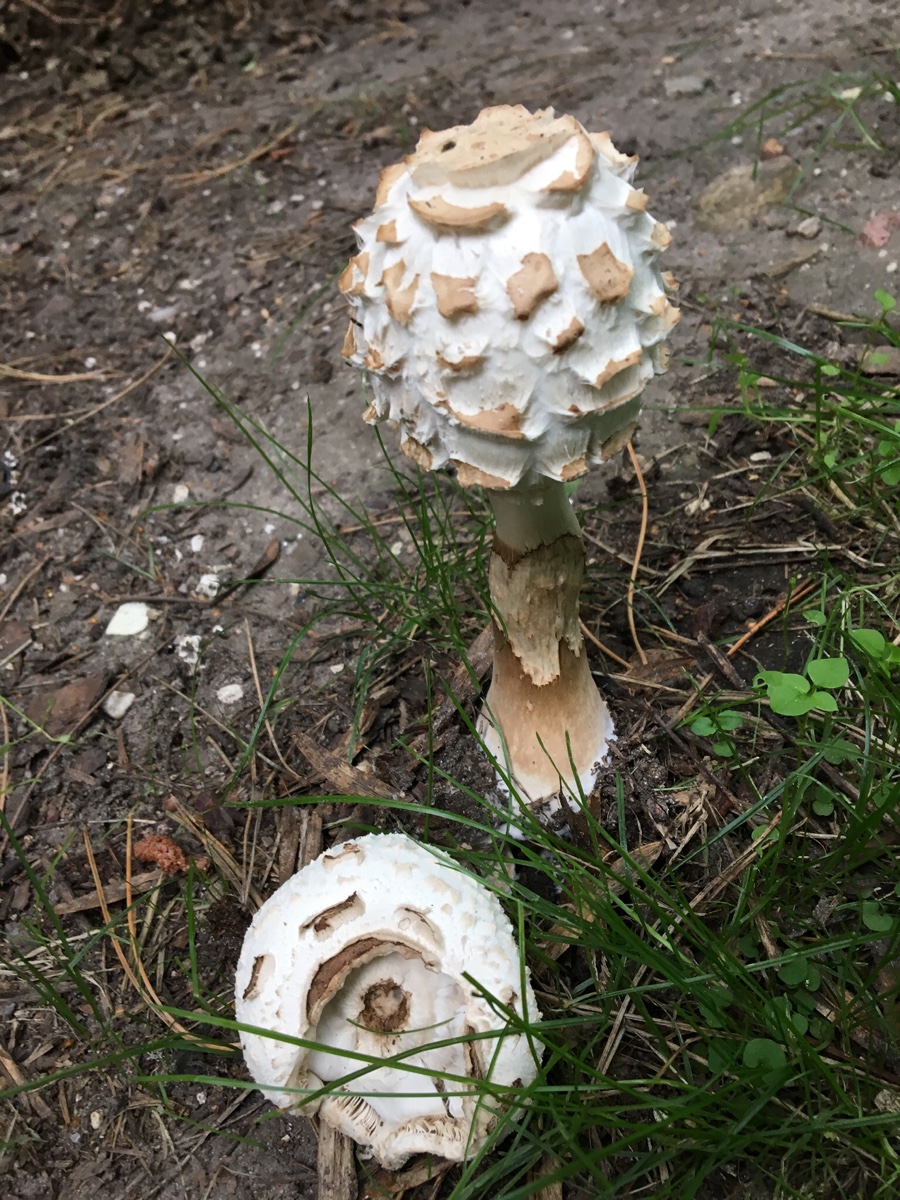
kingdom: Fungi
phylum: Basidiomycota
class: Agaricomycetes
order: Agaricales
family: Agaricaceae
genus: Chlorophyllum
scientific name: Chlorophyllum rhacodes
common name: ægte rabarberhat
